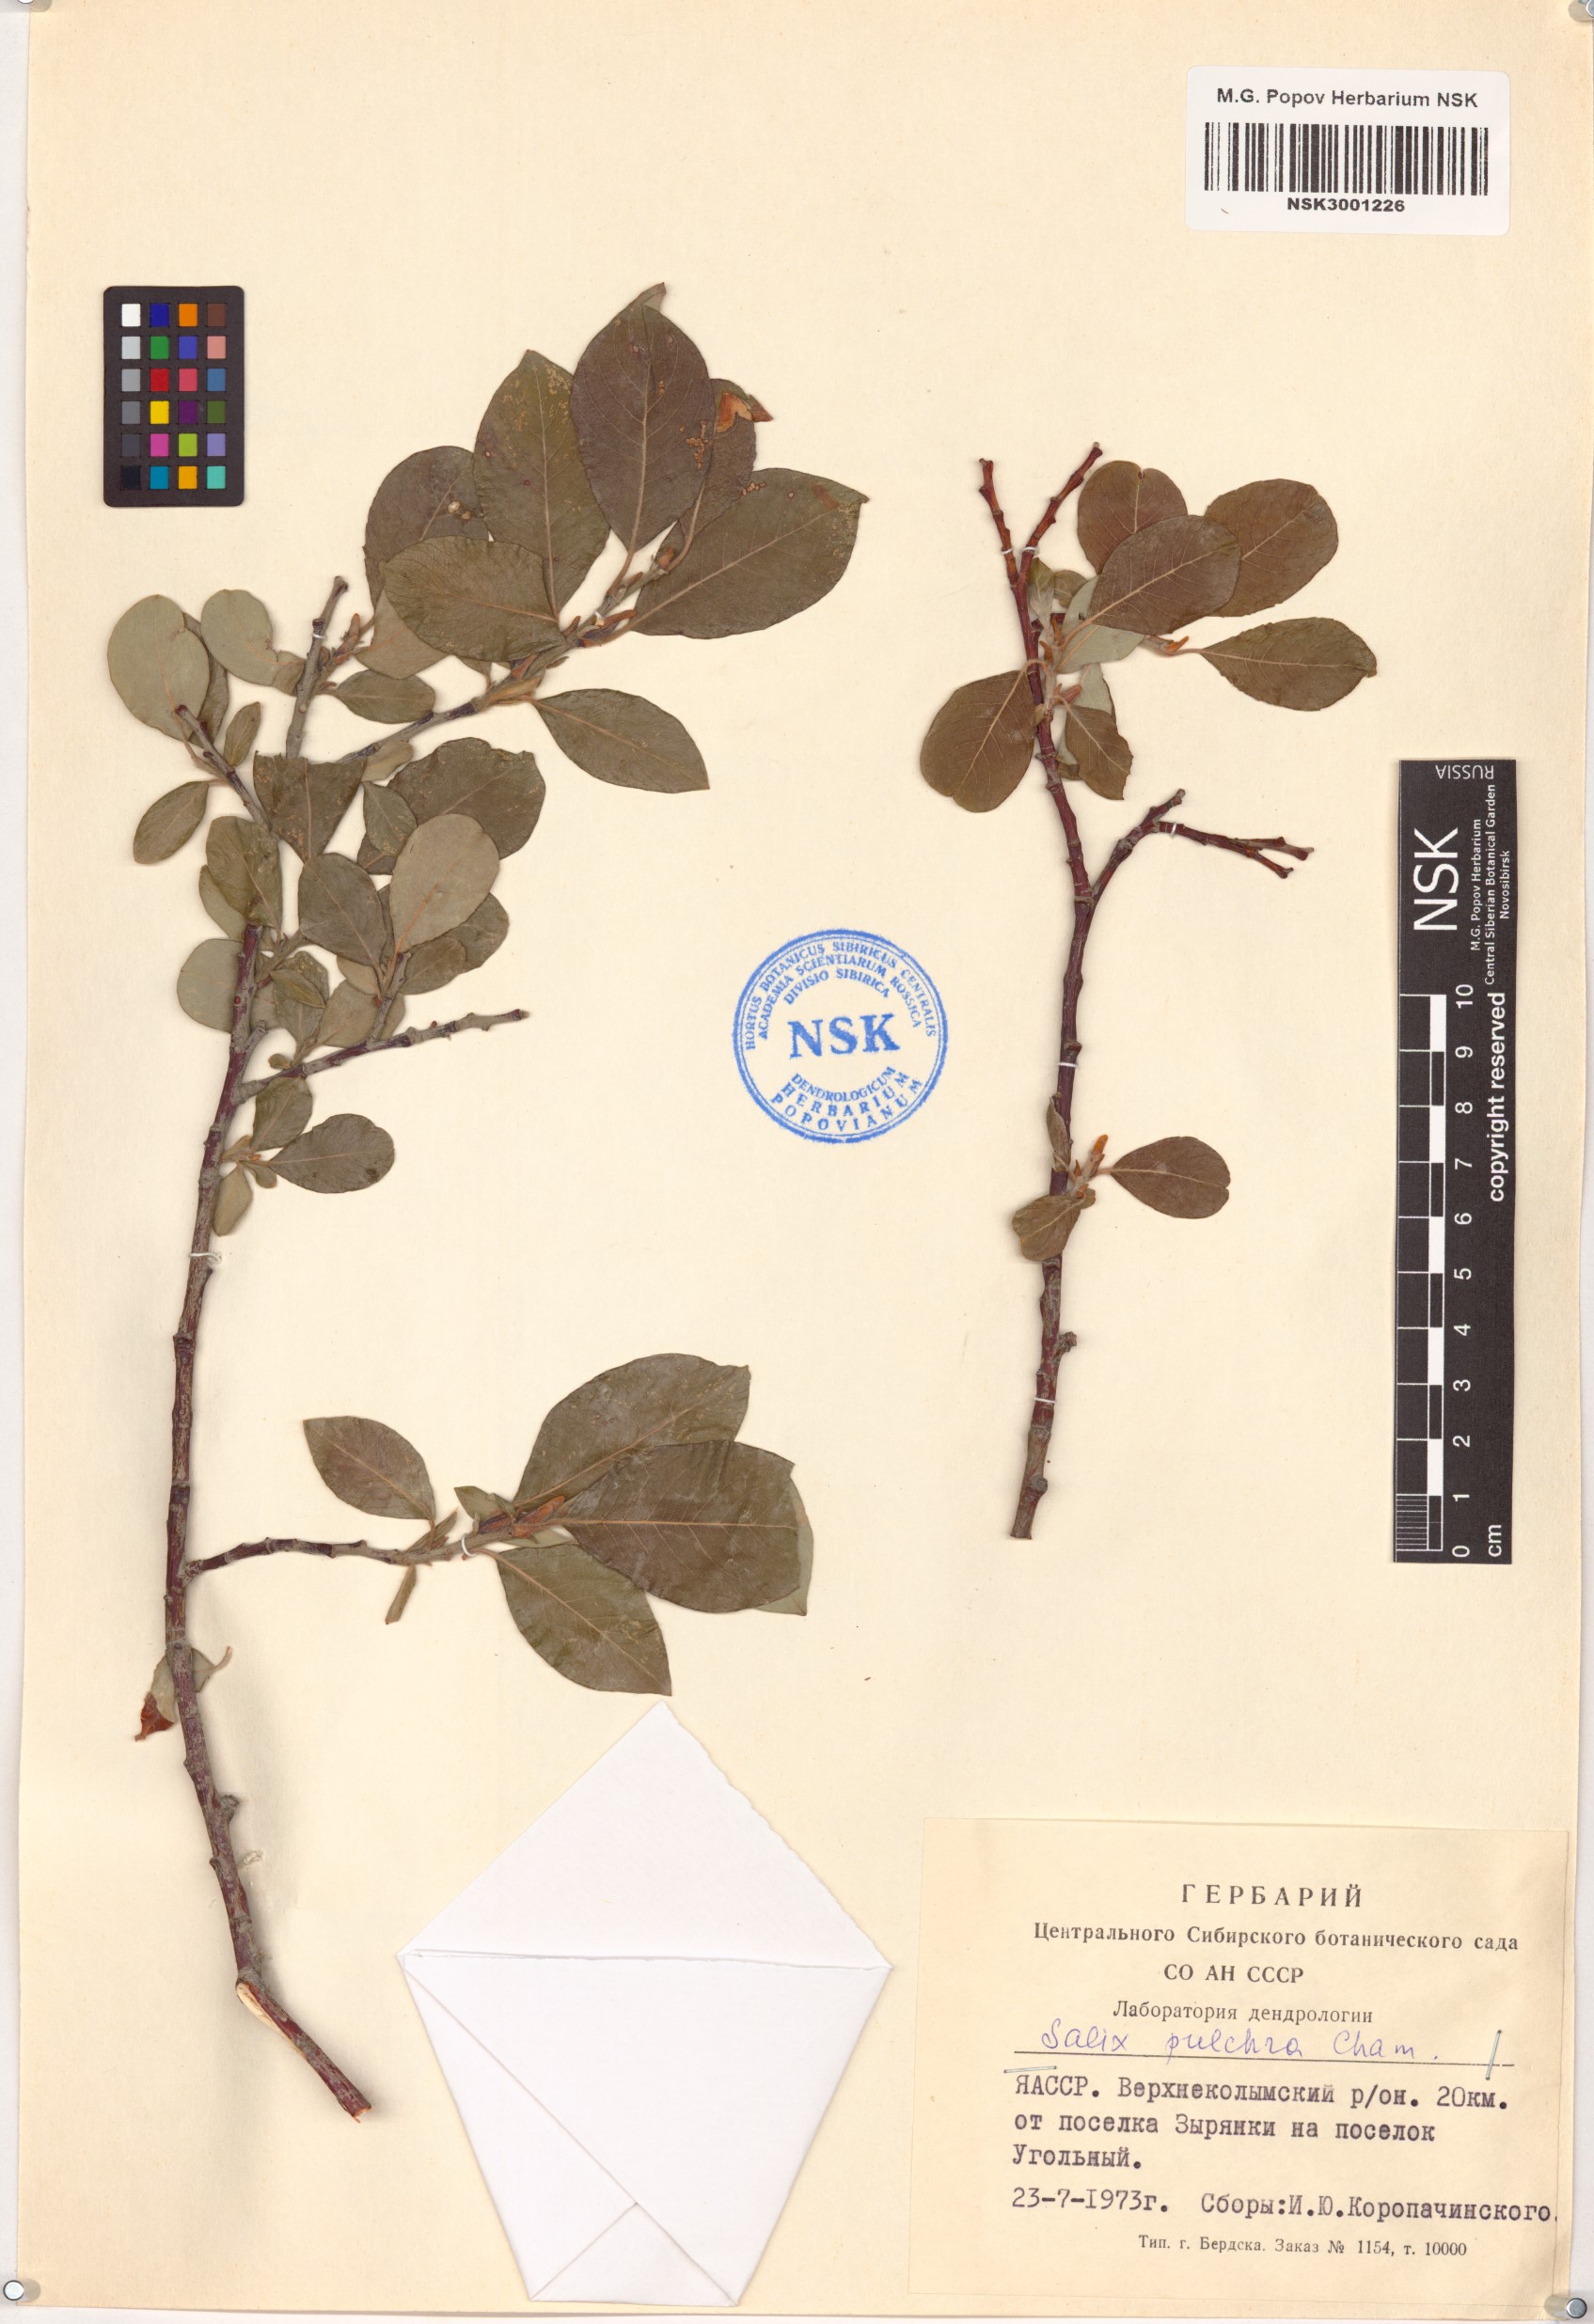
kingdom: Plantae
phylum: Tracheophyta
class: Magnoliopsida
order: Malpighiales
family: Salicaceae
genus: Salix
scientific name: Salix pulchra
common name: Diamond-leaved willow
